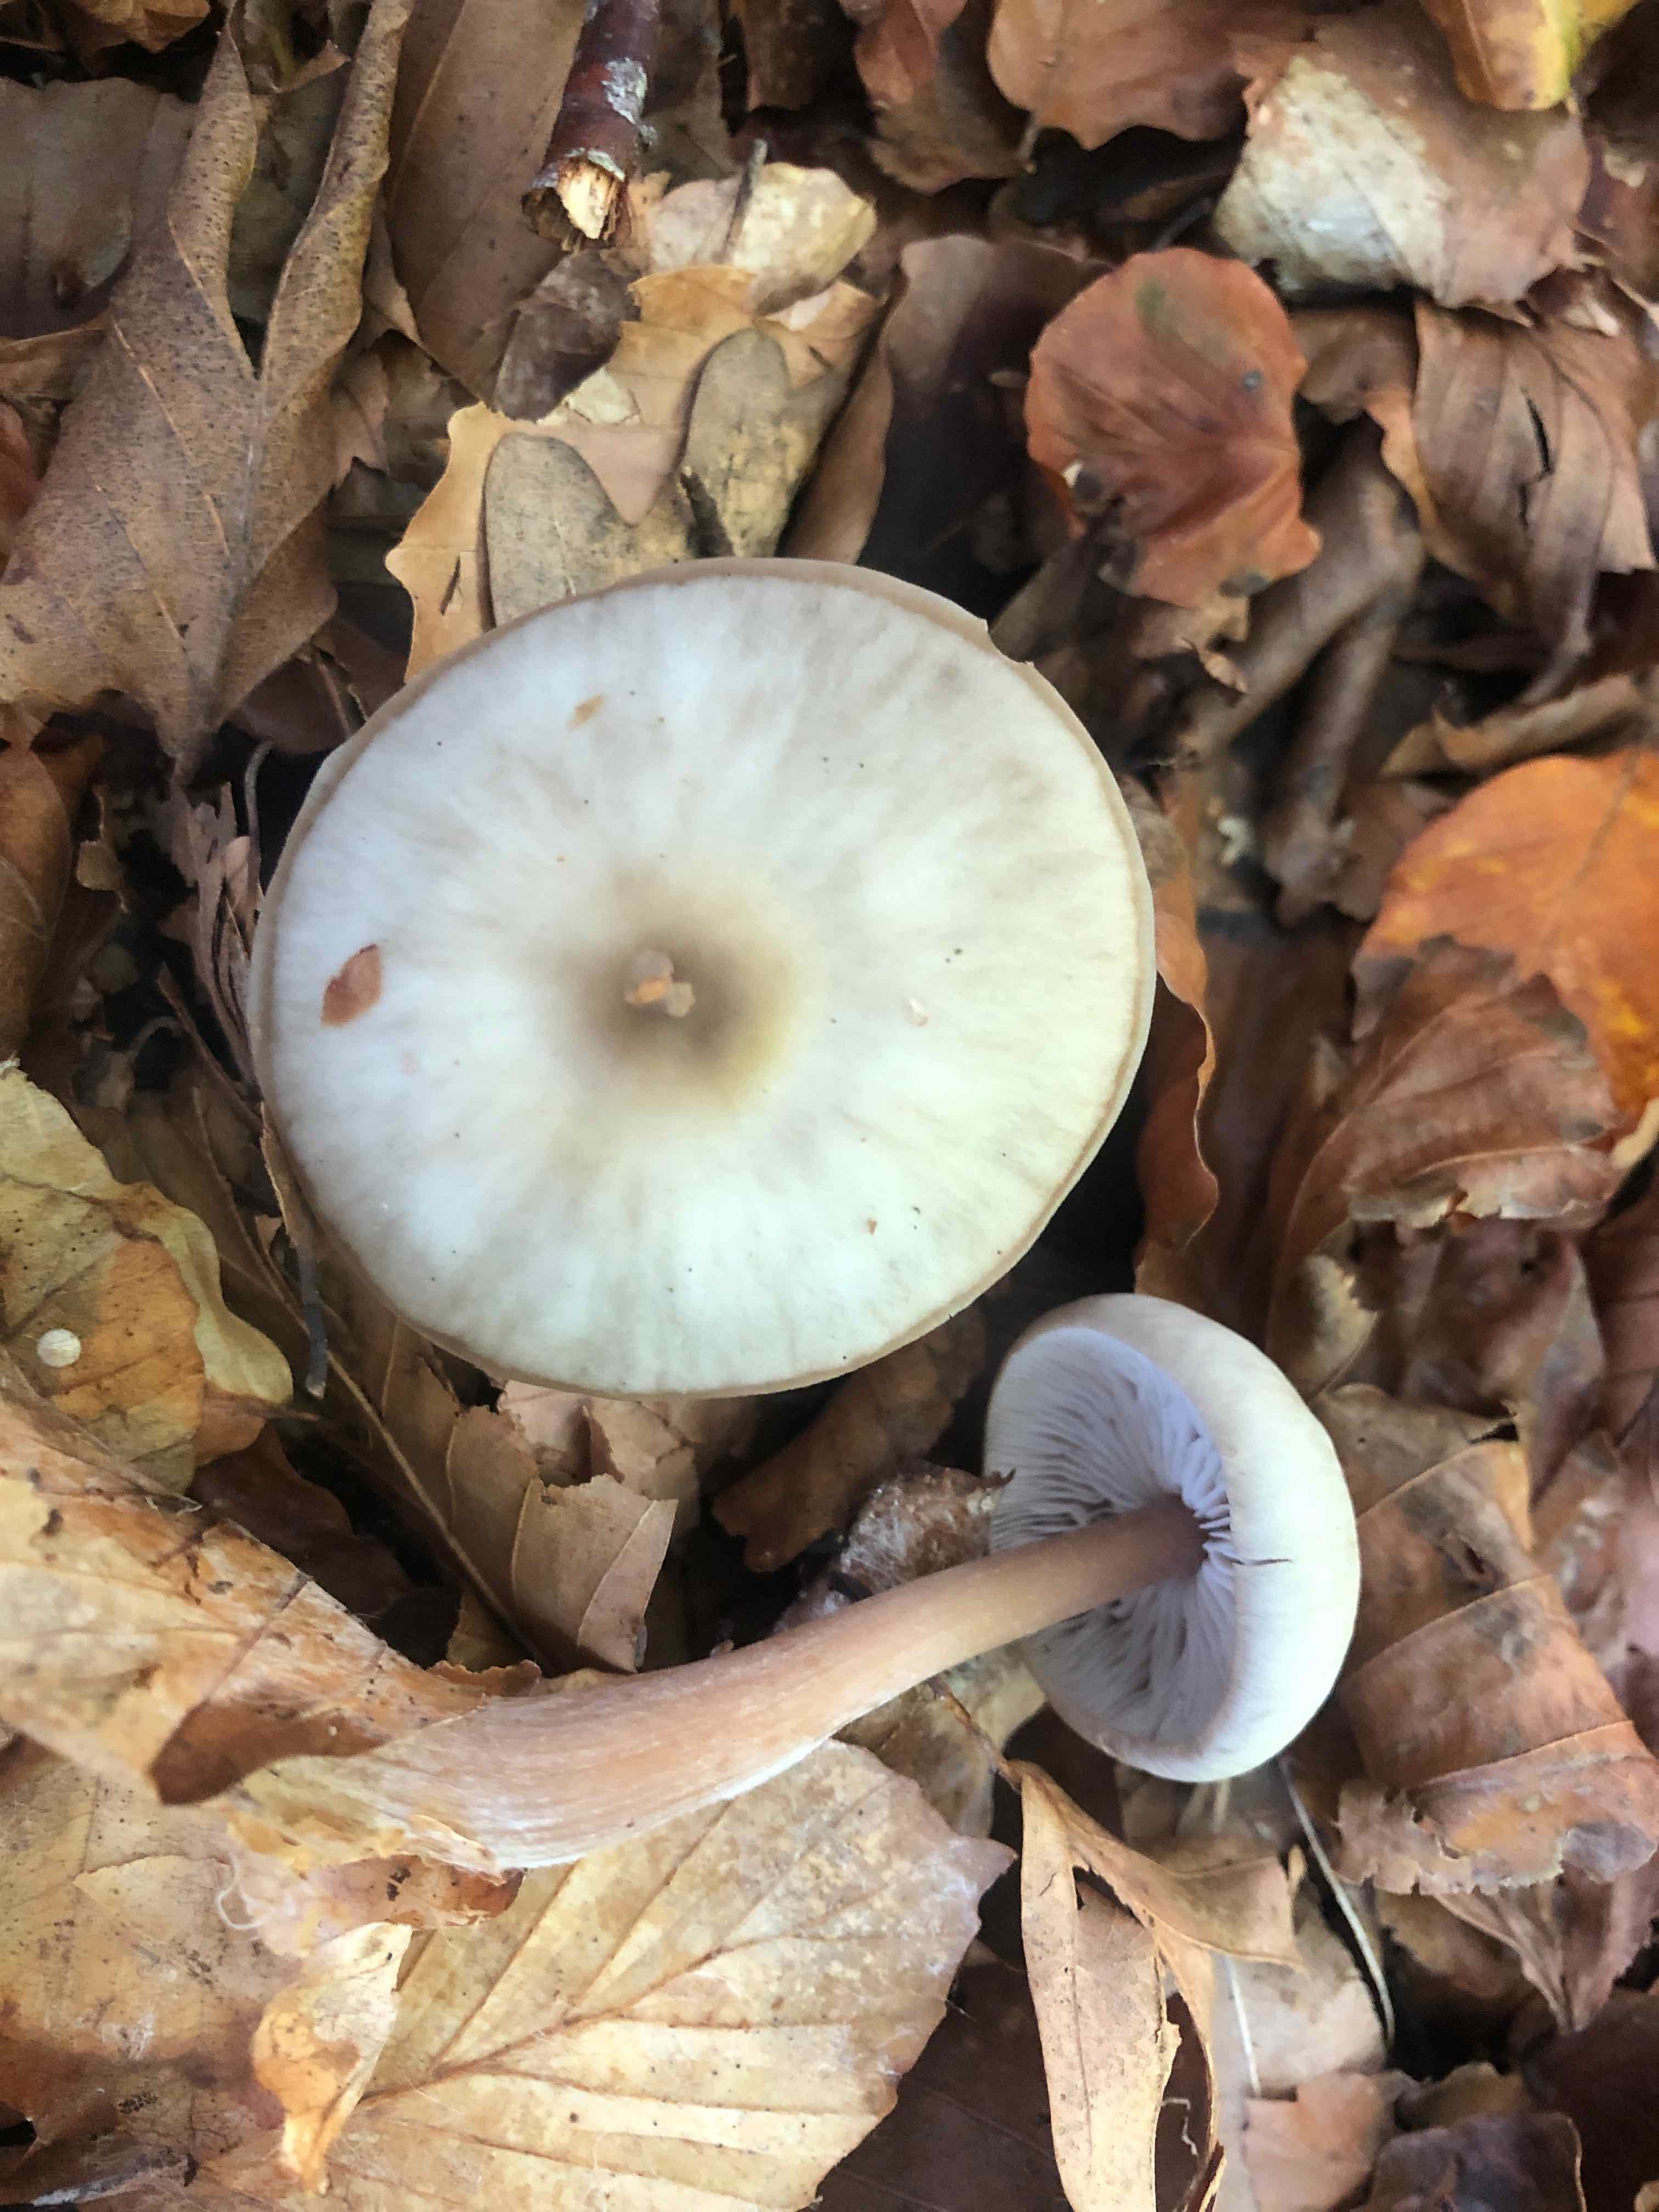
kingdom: Fungi
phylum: Basidiomycota
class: Agaricomycetes
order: Agaricales
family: Omphalotaceae
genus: Rhodocollybia
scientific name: Rhodocollybia asema
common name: horngrå fladhat
